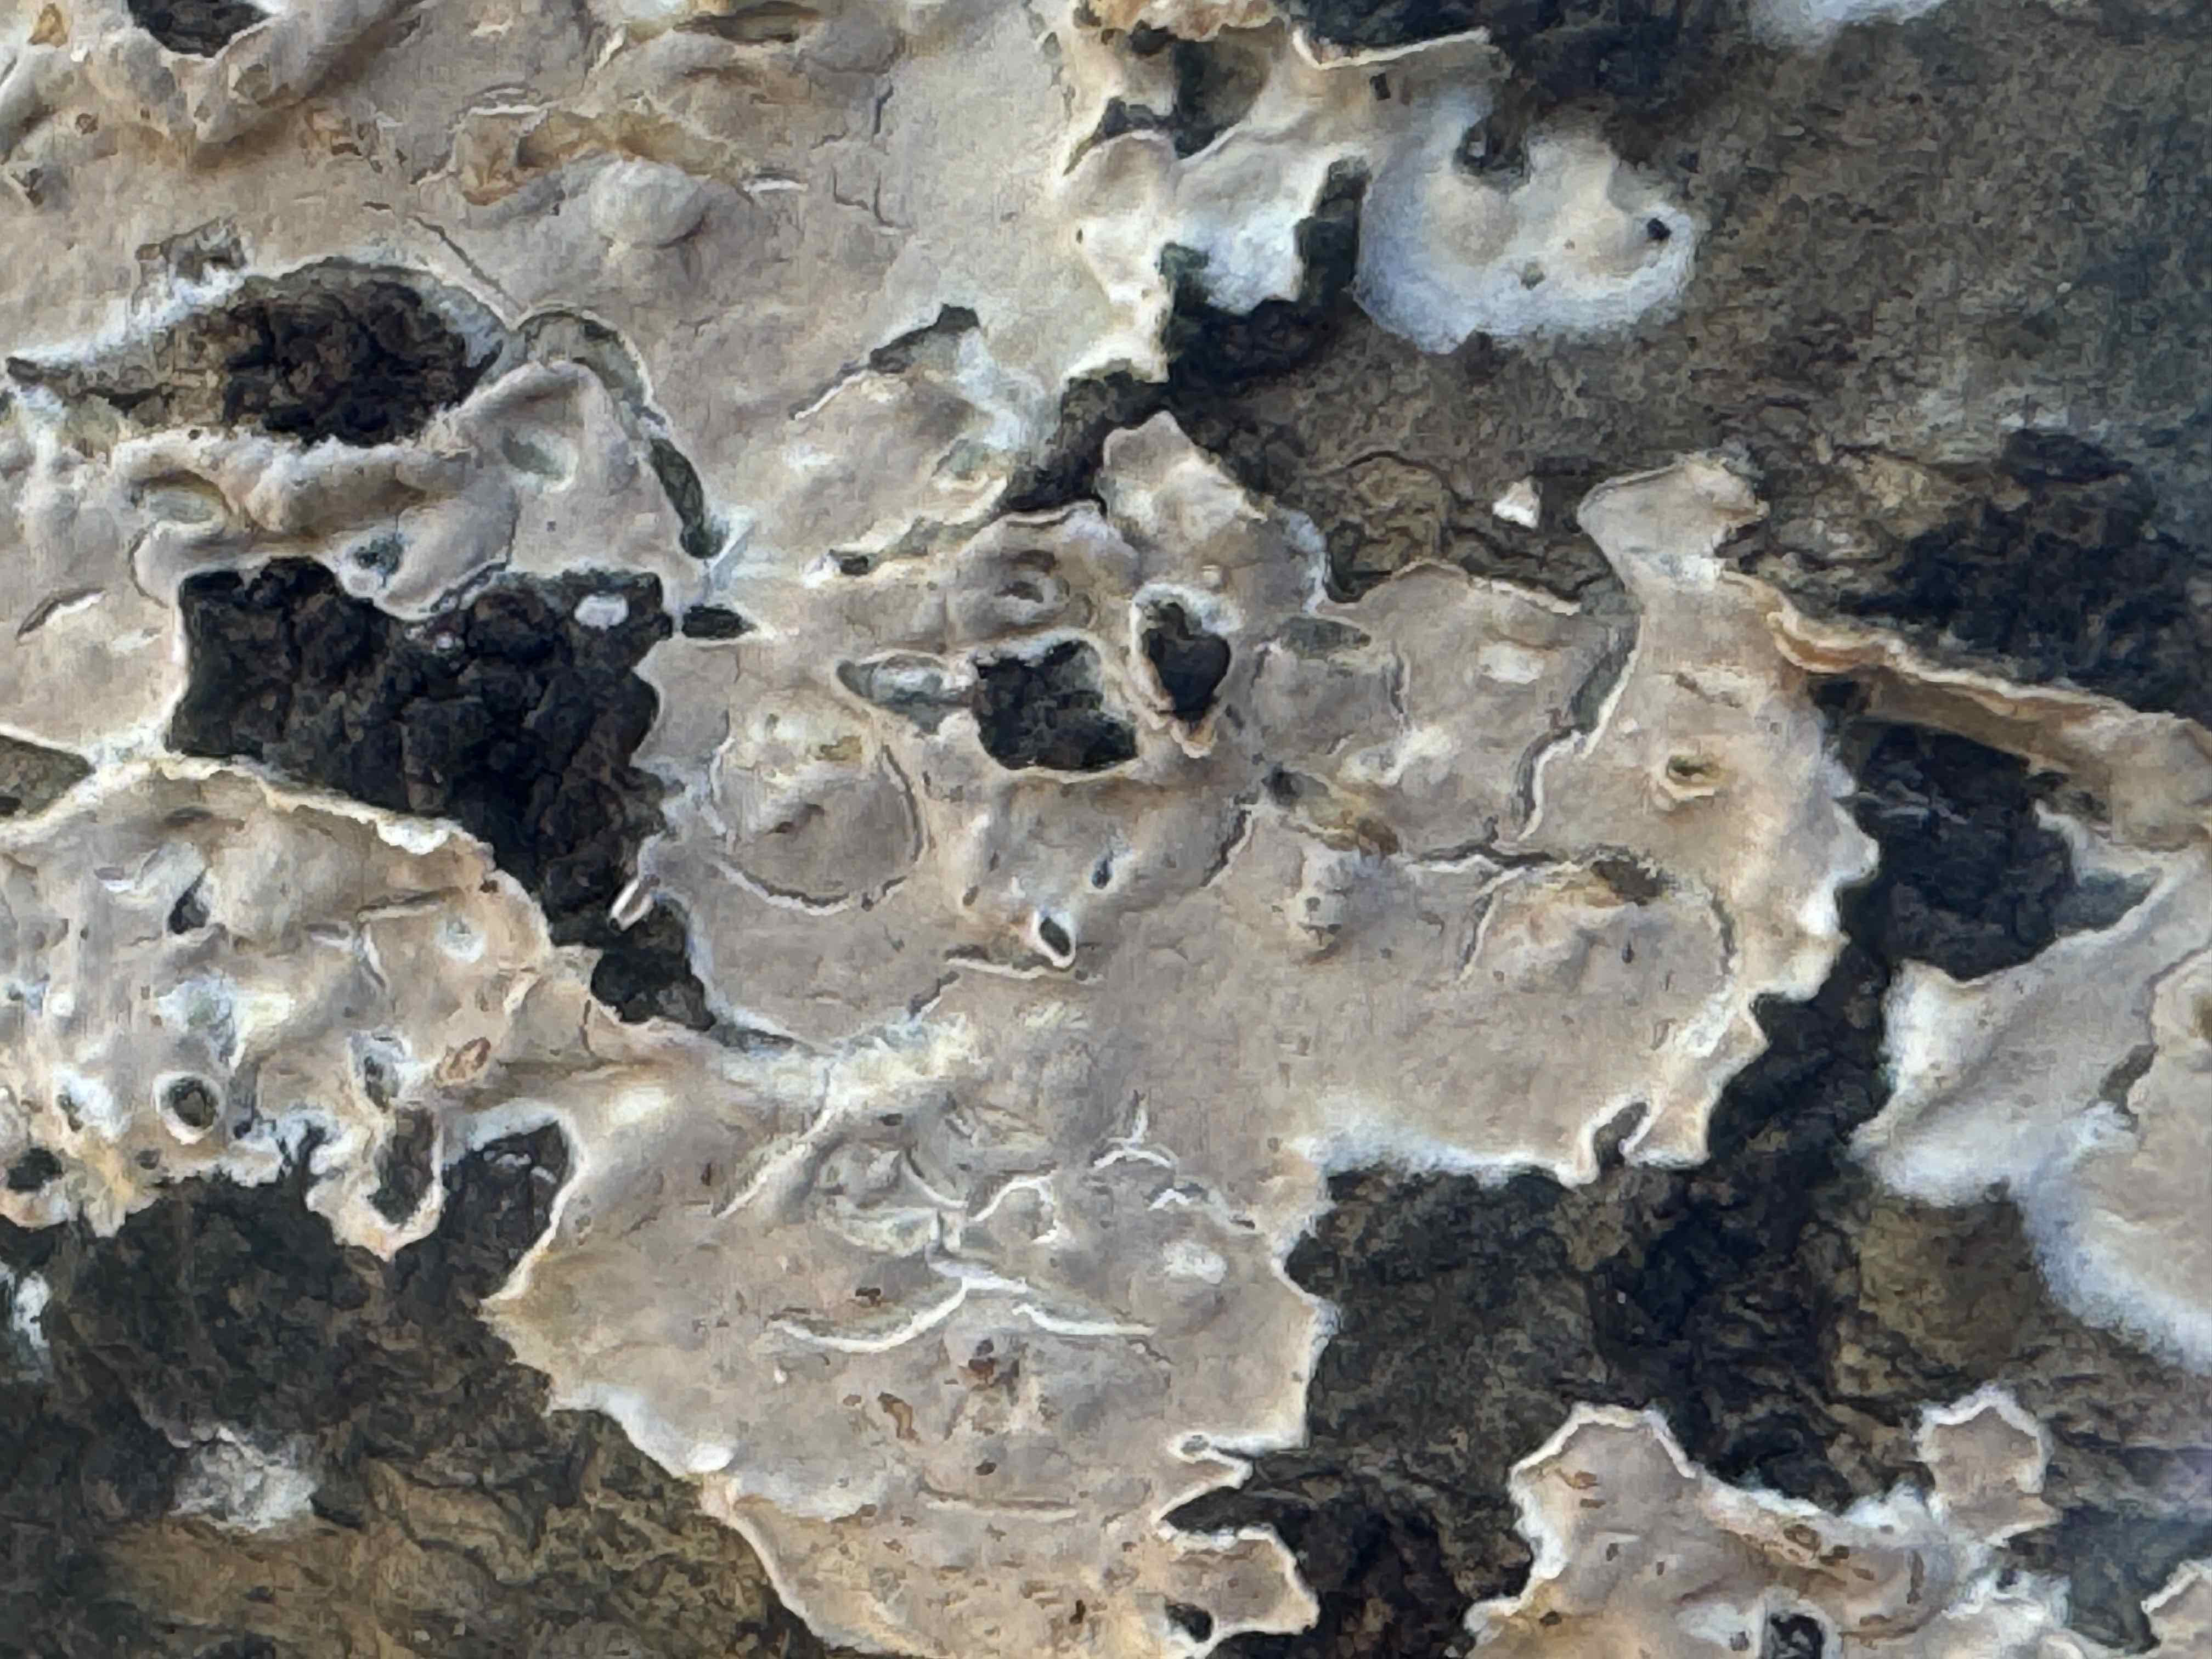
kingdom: Fungi
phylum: Basidiomycota
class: Agaricomycetes
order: Agaricales
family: Physalacriaceae
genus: Cylindrobasidium
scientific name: Cylindrobasidium evolvens
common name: sprækkehinde
